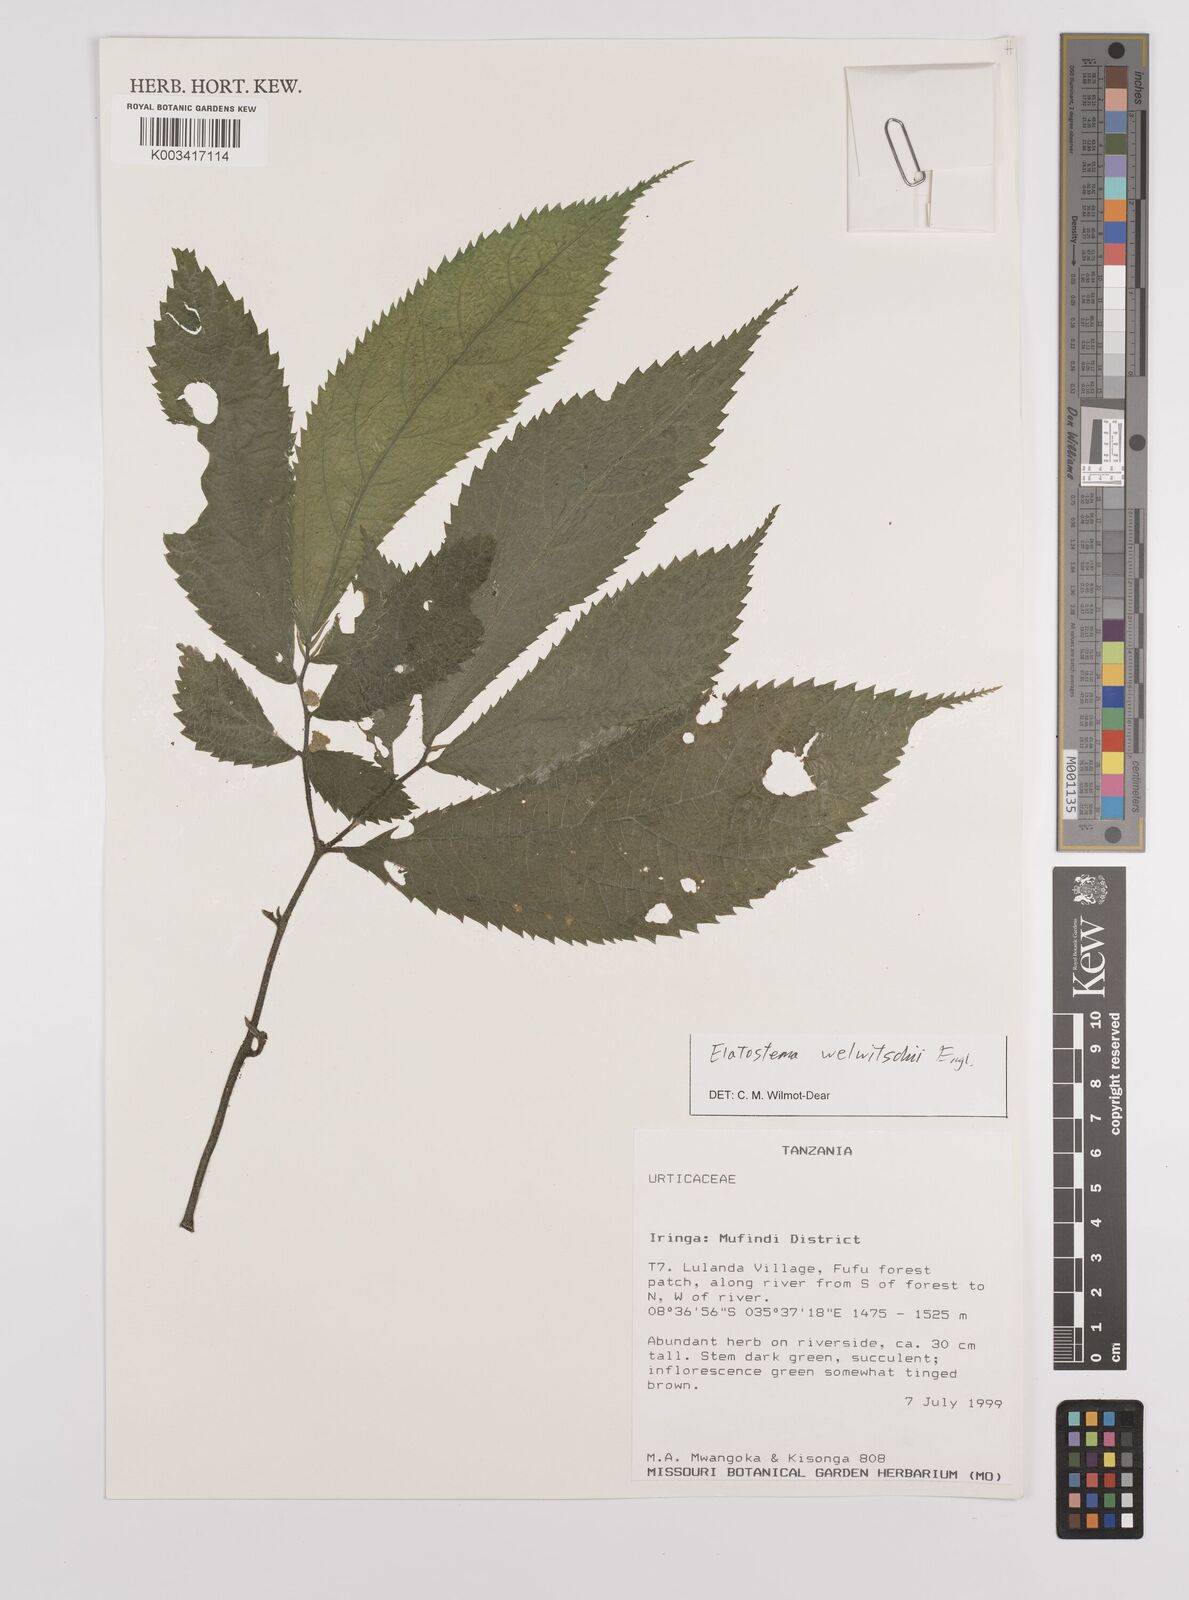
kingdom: Plantae
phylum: Tracheophyta
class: Magnoliopsida
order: Rosales
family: Urticaceae
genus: Elatostema
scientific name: Elatostema welwitschii
